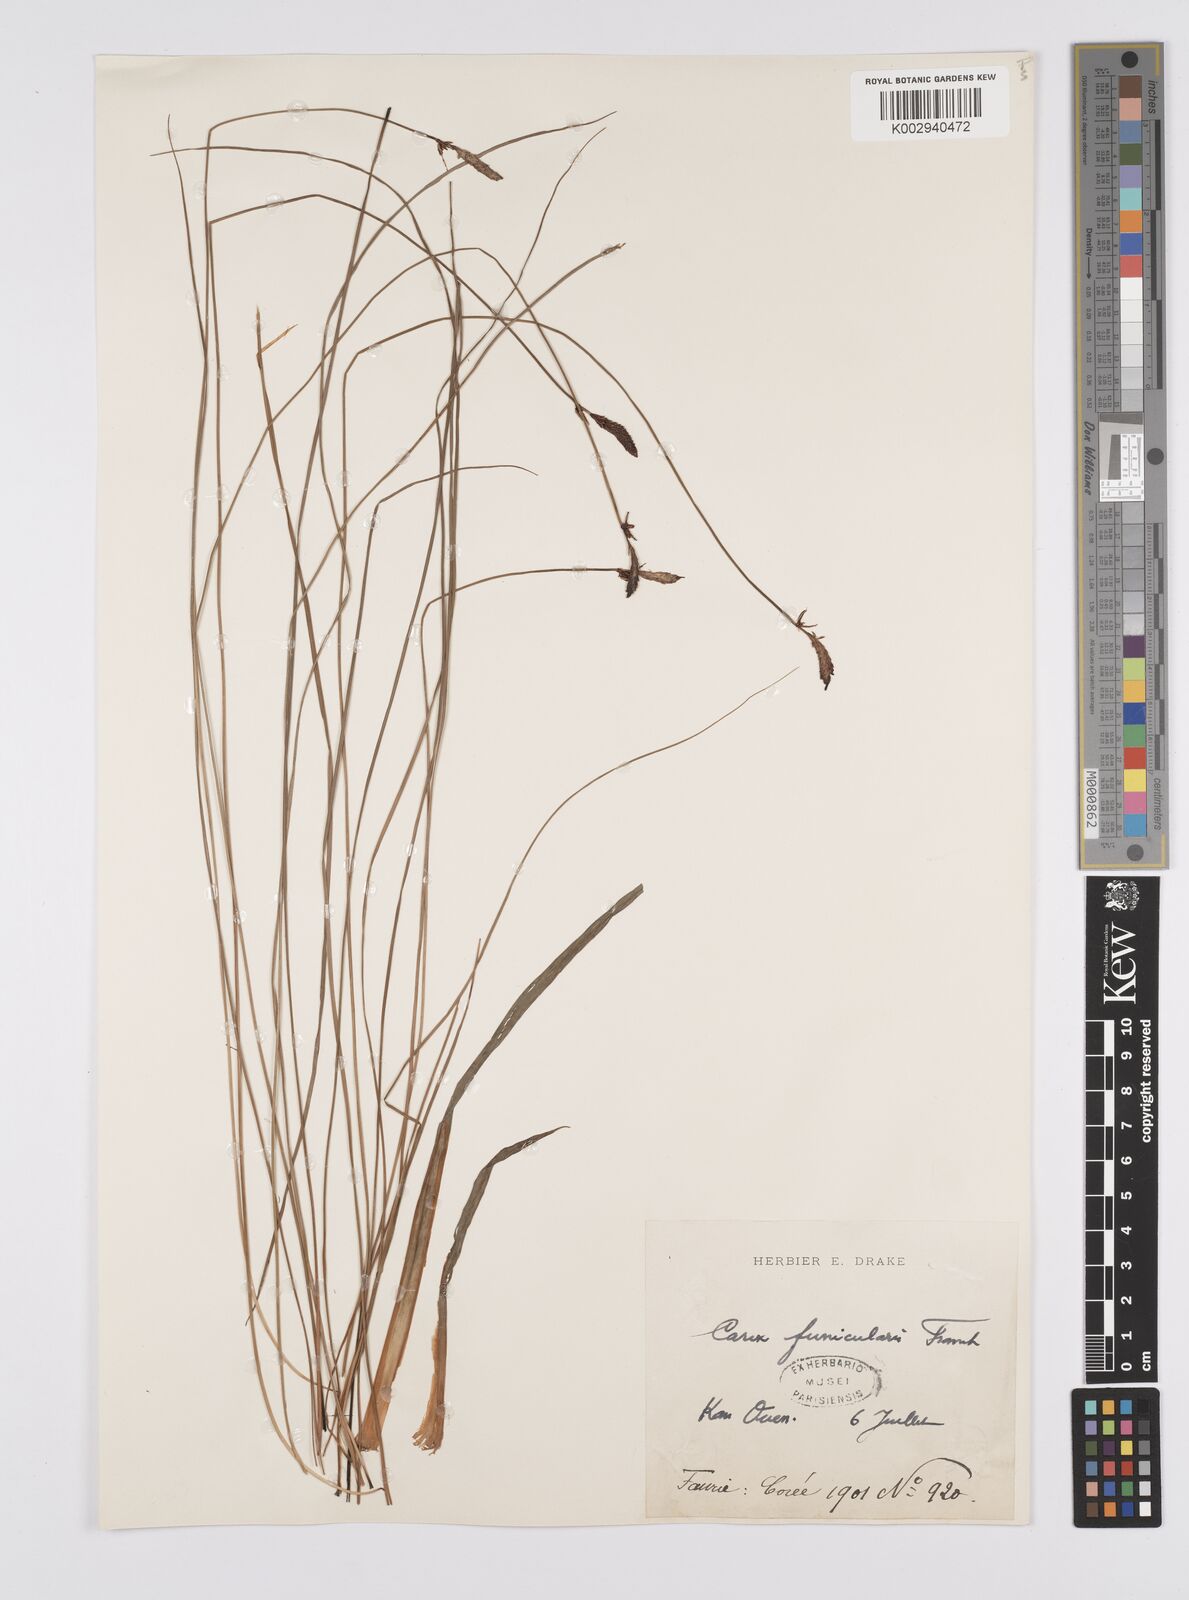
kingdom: Plantae
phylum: Tracheophyta
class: Liliopsida
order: Poales
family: Cyperaceae
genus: Carex
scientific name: Carex meyeriana
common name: Wula sedge
